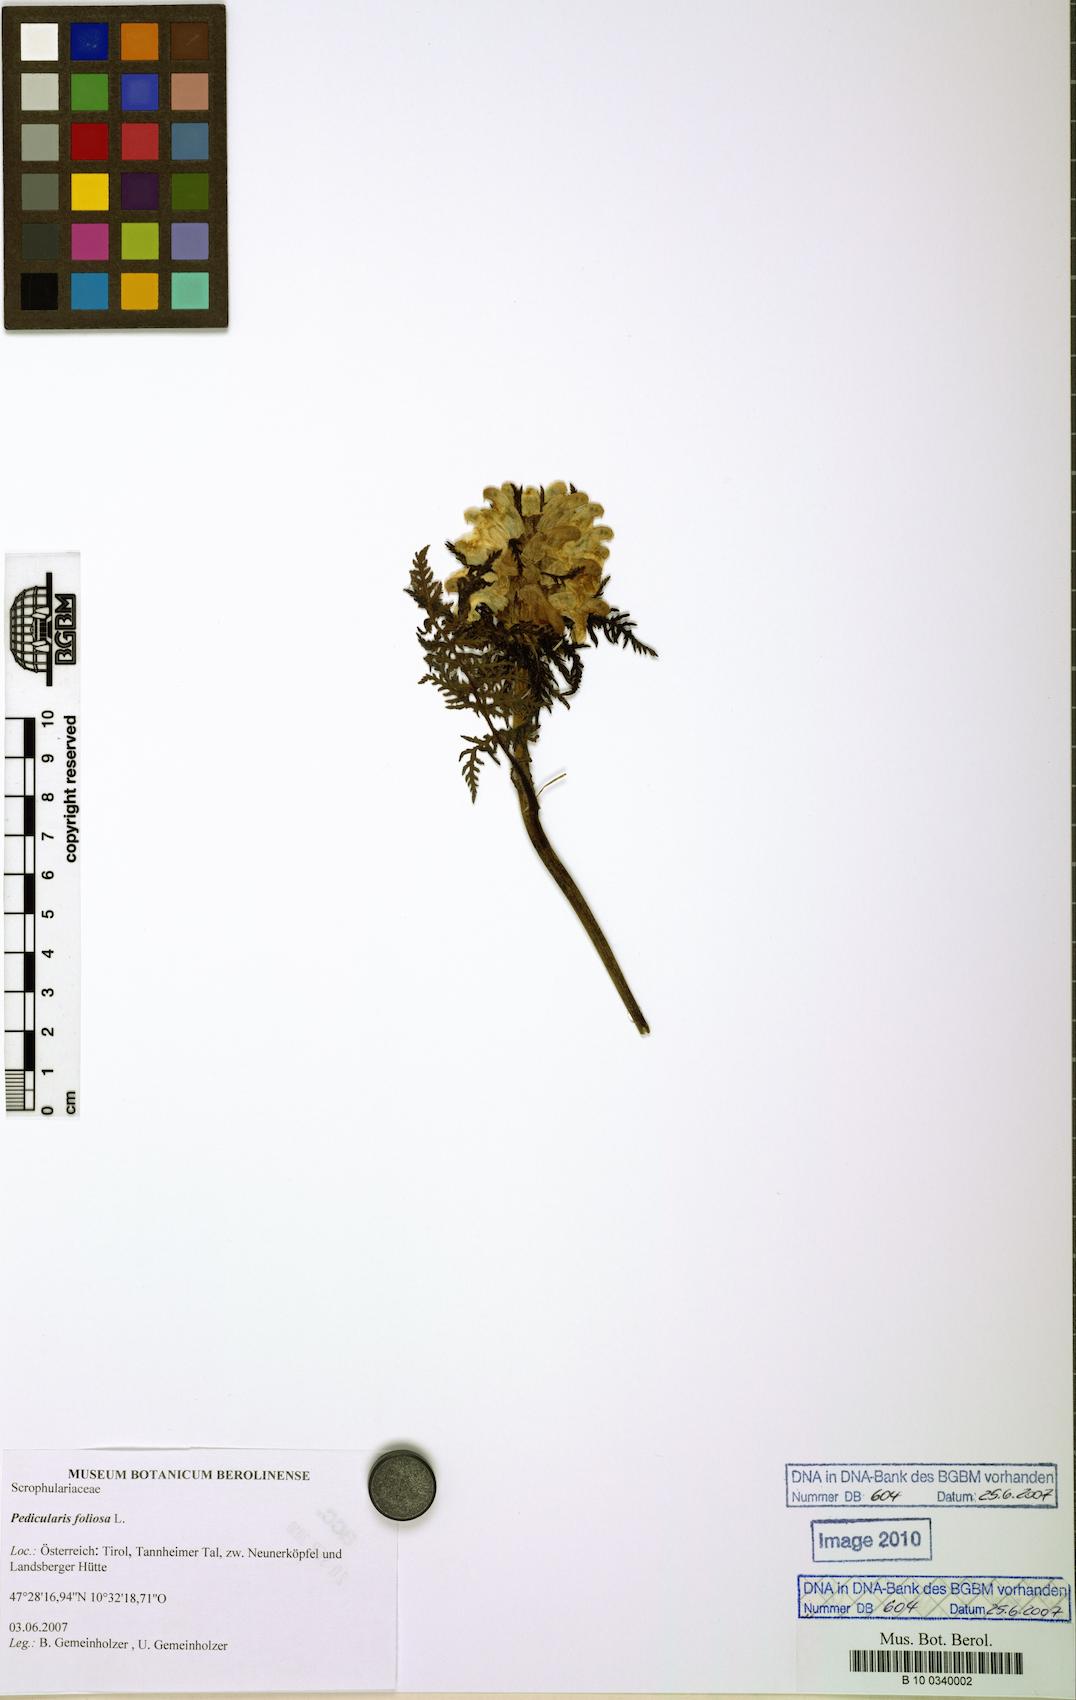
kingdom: Plantae
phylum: Tracheophyta
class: Magnoliopsida
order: Lamiales
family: Orobanchaceae
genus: Pedicularis
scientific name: Pedicularis foliosa
